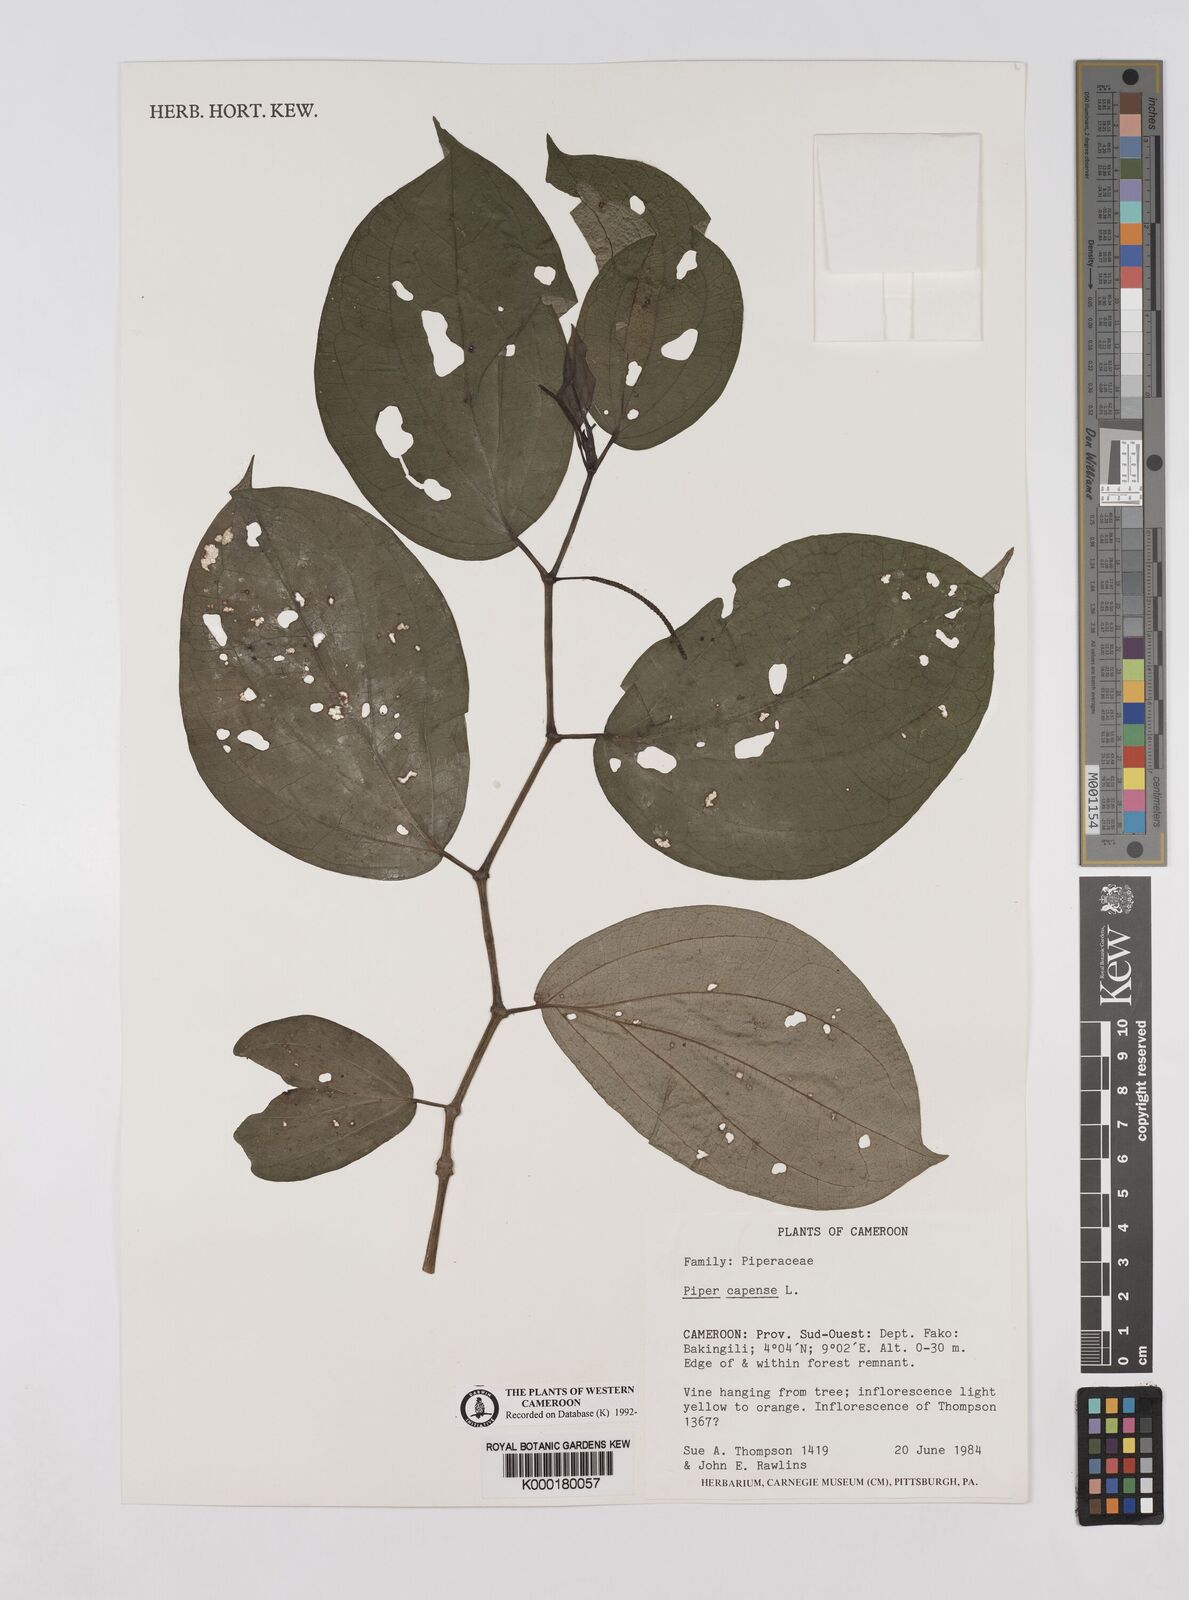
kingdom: Plantae
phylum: Tracheophyta
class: Magnoliopsida
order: Piperales
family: Piperaceae
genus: Piper
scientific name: Piper capense
